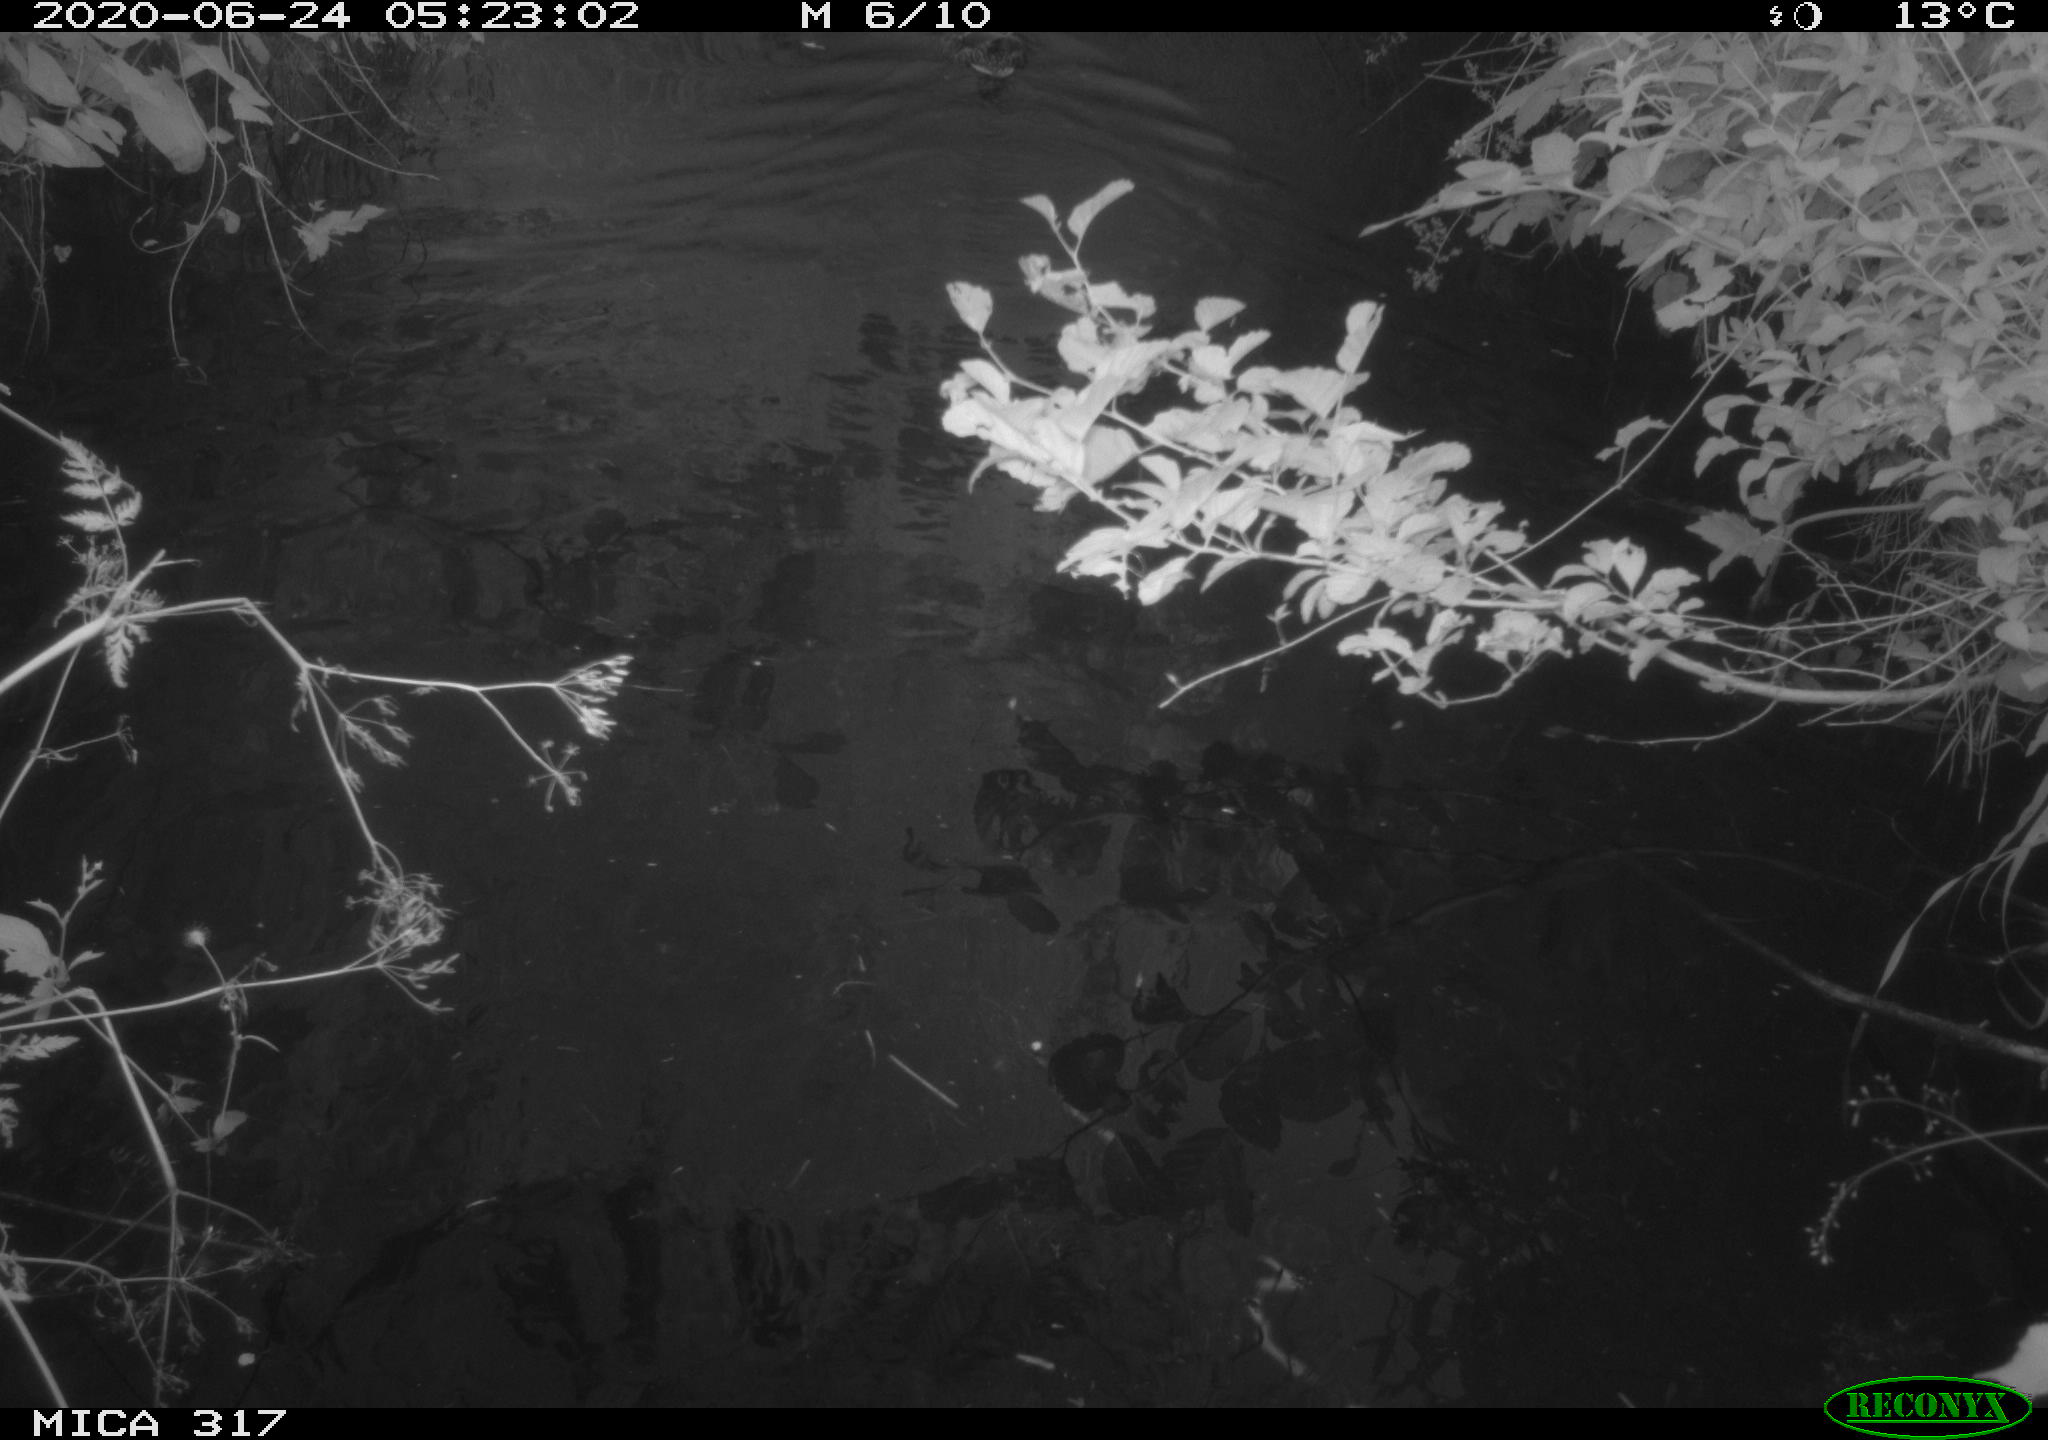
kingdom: Animalia
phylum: Chordata
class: Aves
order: Anseriformes
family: Anatidae
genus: Anas
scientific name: Anas platyrhynchos
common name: Mallard
